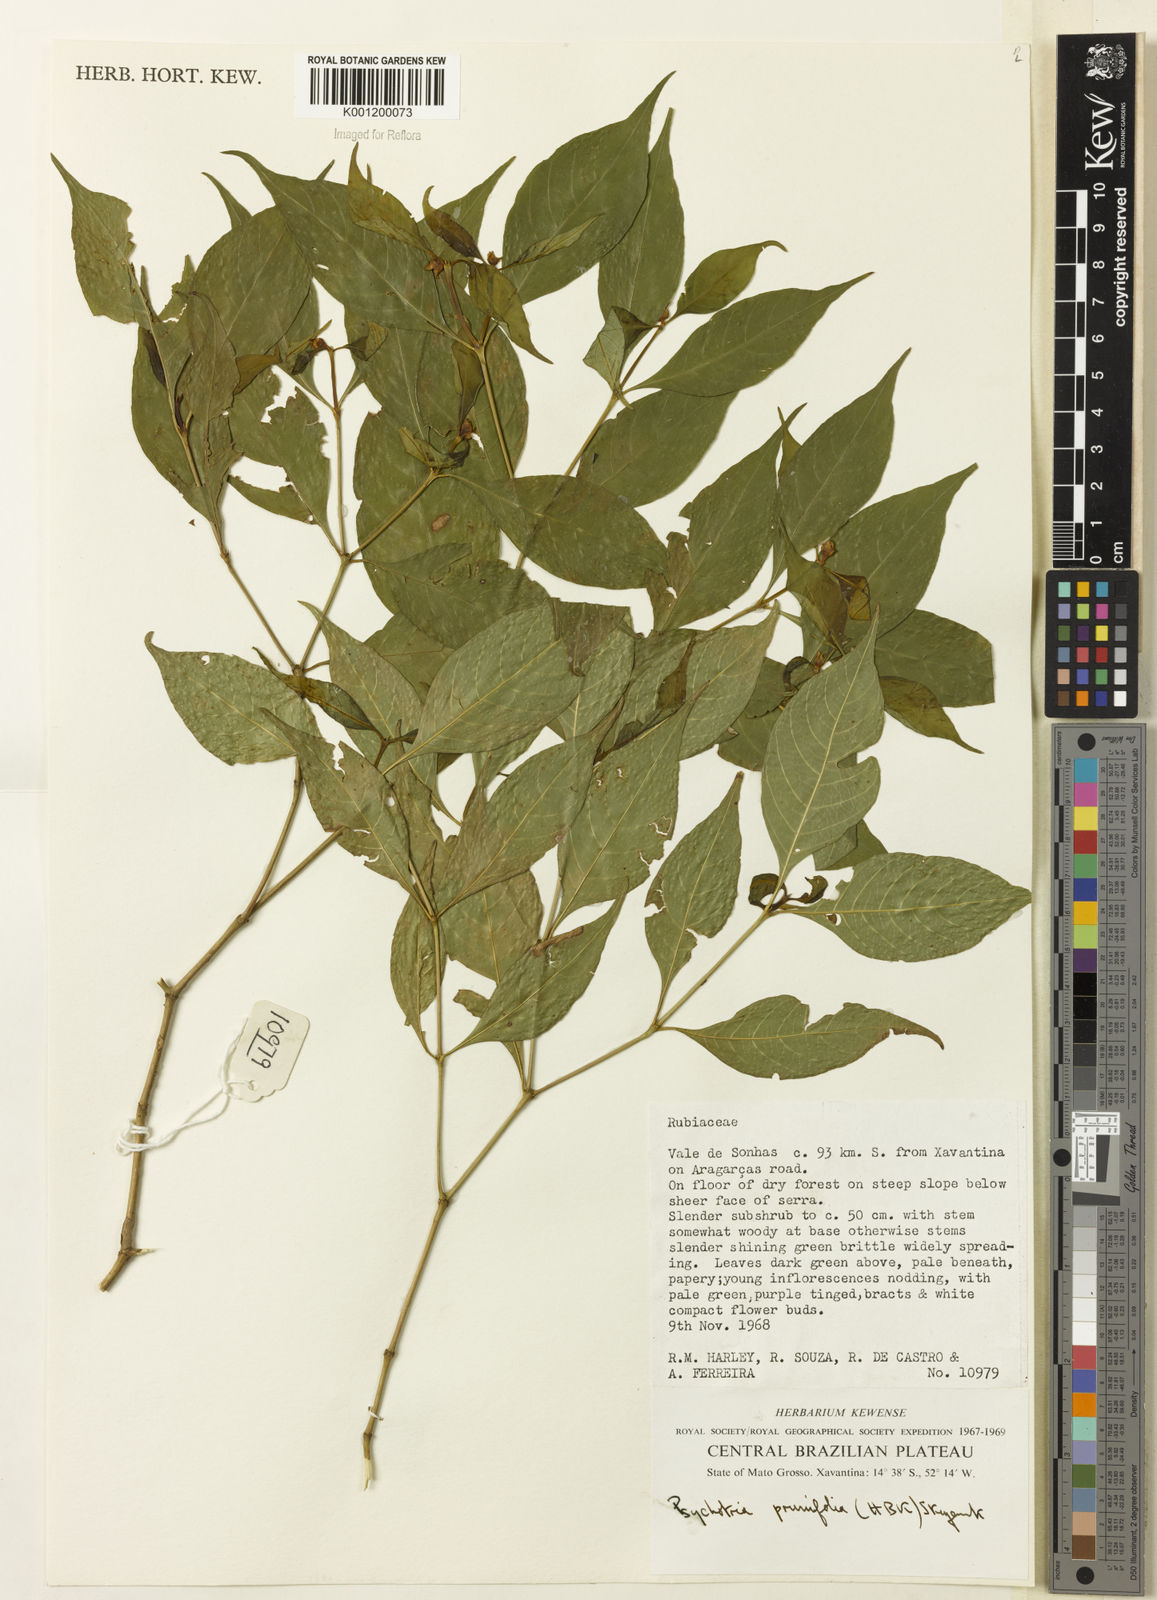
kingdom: Plantae
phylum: Tracheophyta
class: Magnoliopsida
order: Gentianales
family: Rubiaceae
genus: Palicourea
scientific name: Palicourea prunifolia
